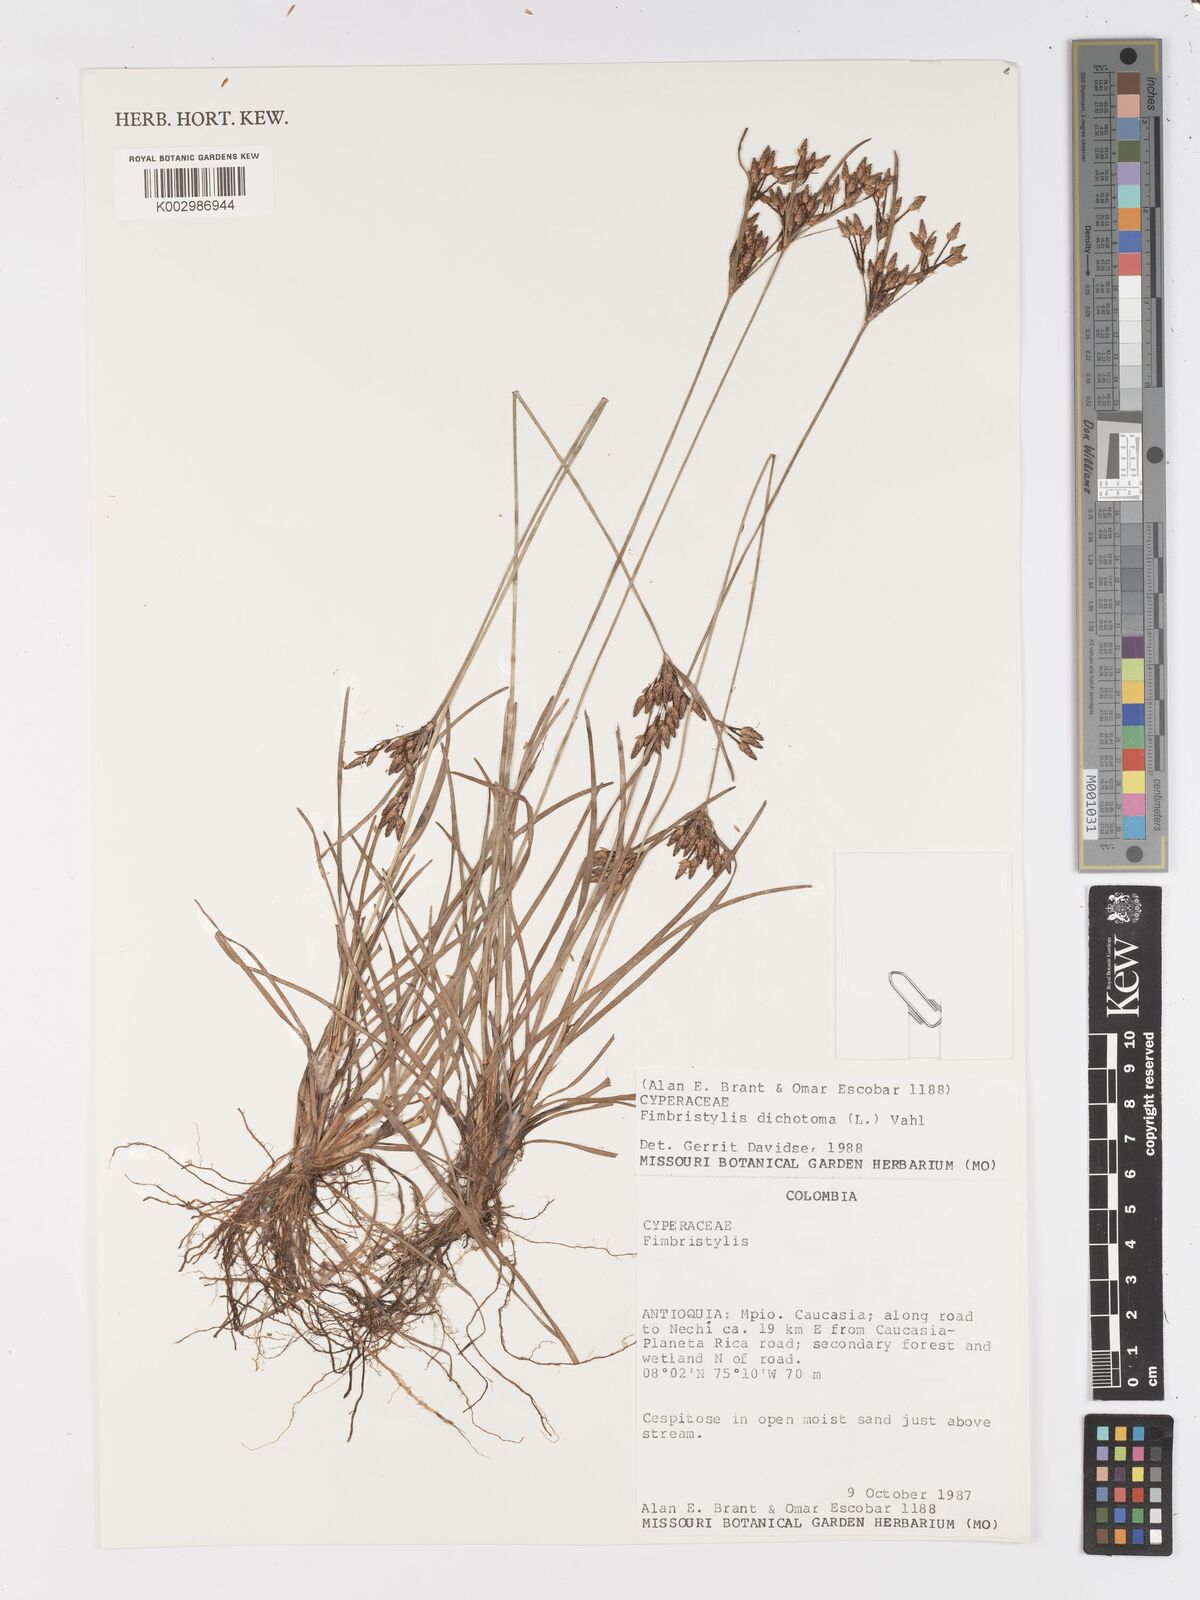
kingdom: Plantae
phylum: Tracheophyta
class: Liliopsida
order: Poales
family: Cyperaceae
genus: Fimbristylis
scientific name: Fimbristylis dichotoma
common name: Forked fimbry
